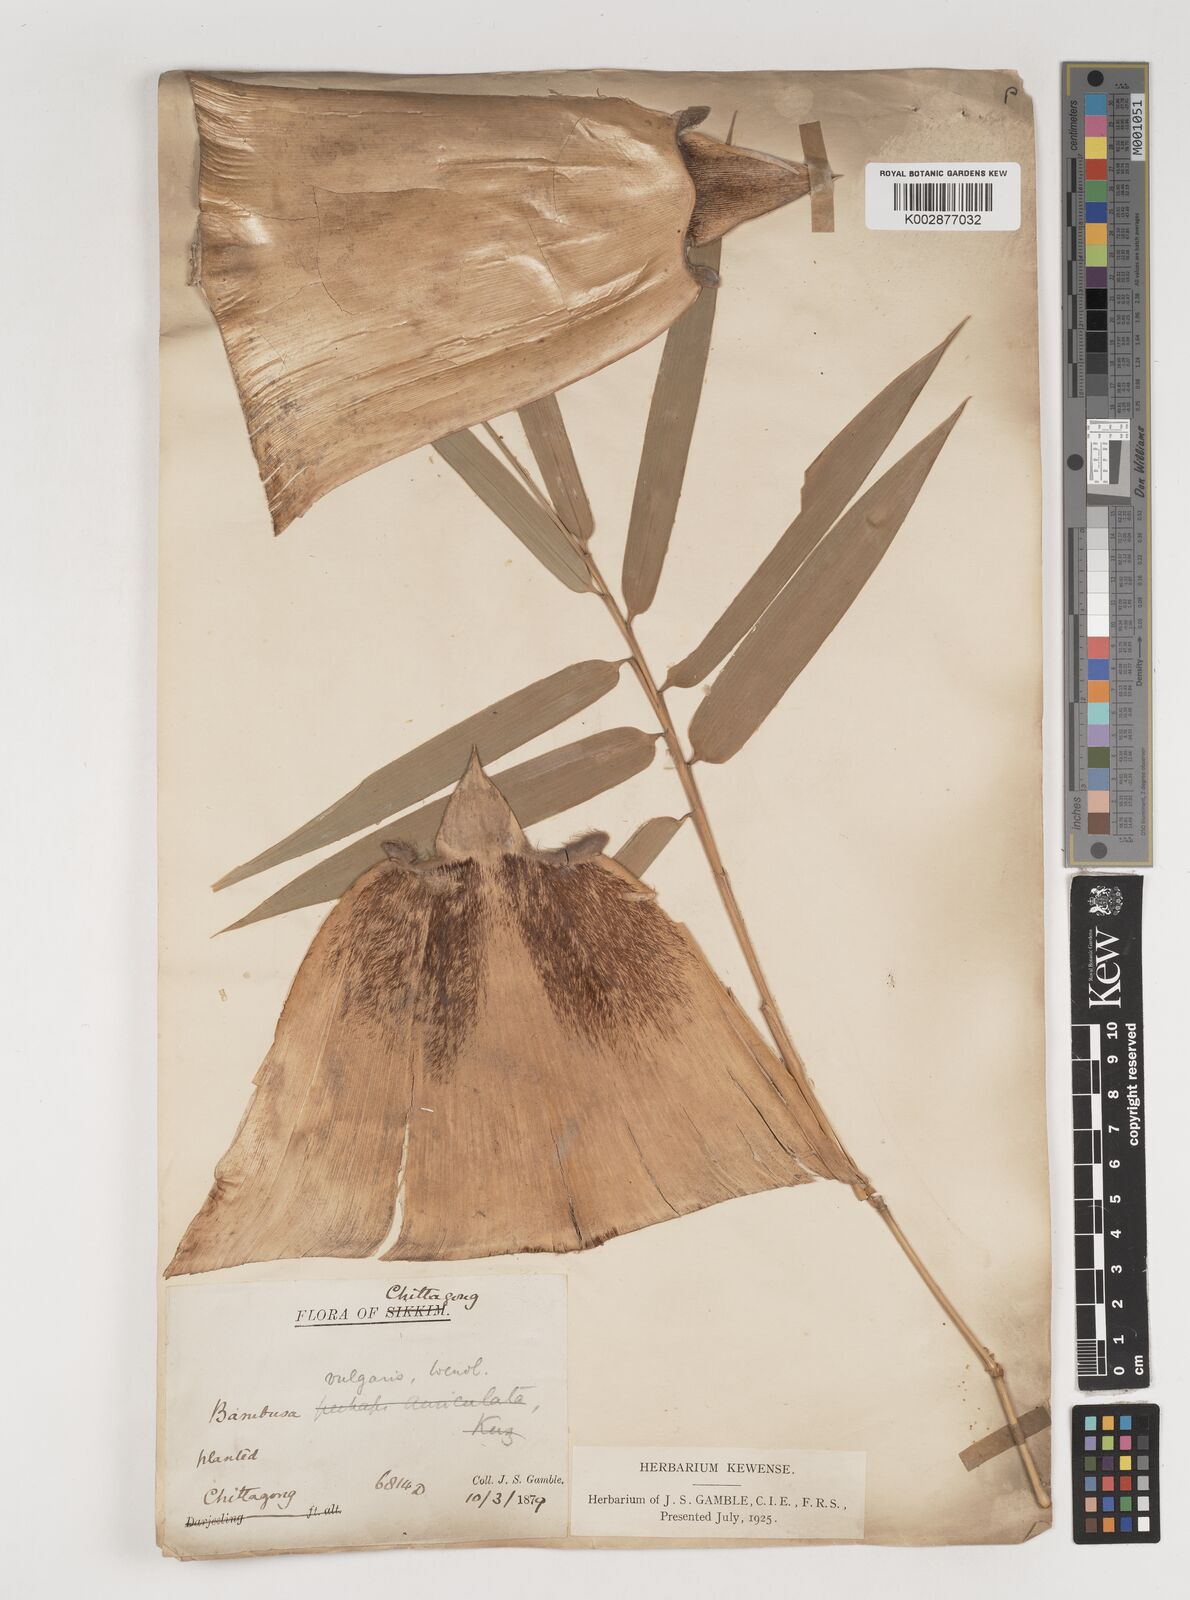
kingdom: Plantae
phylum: Tracheophyta
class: Liliopsida
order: Poales
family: Poaceae
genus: Bambusa
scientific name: Bambusa vulgaris
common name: Common bamboo
